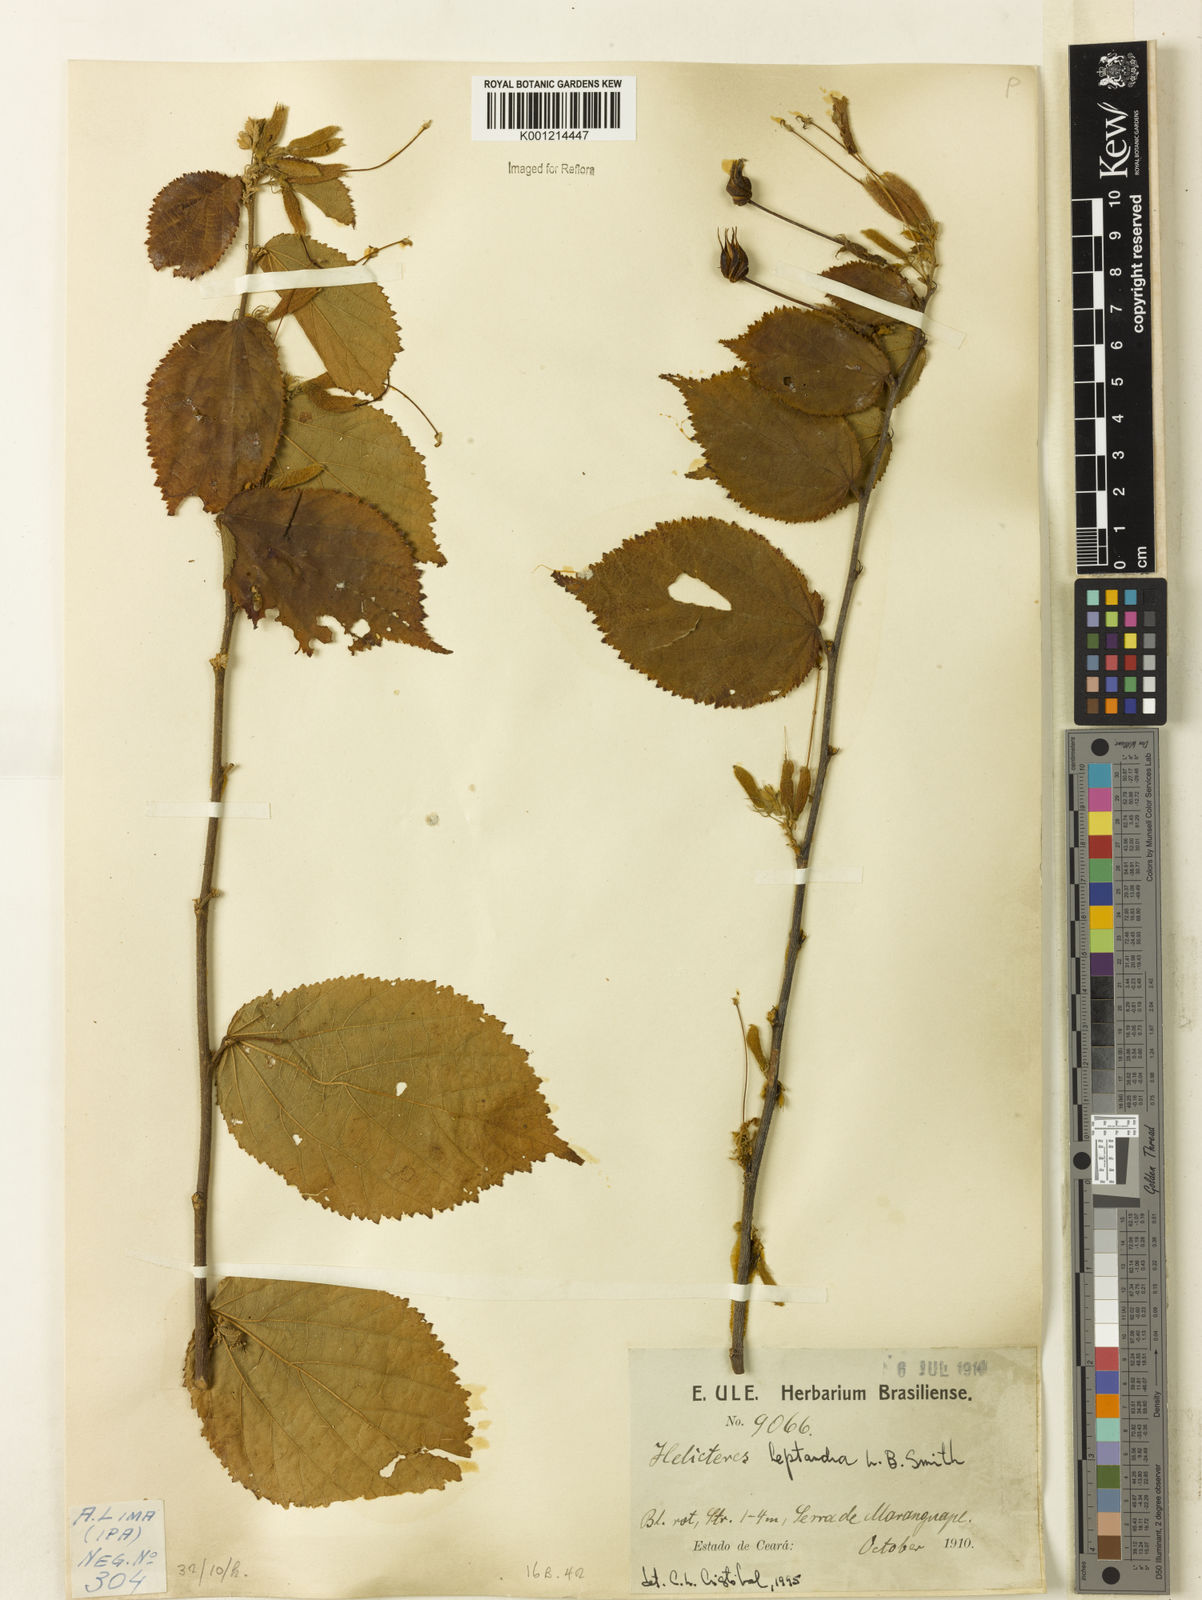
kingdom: Plantae
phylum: Tracheophyta
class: Magnoliopsida
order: Malvales
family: Malvaceae
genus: Helicteres
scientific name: Helicteres heptandra
